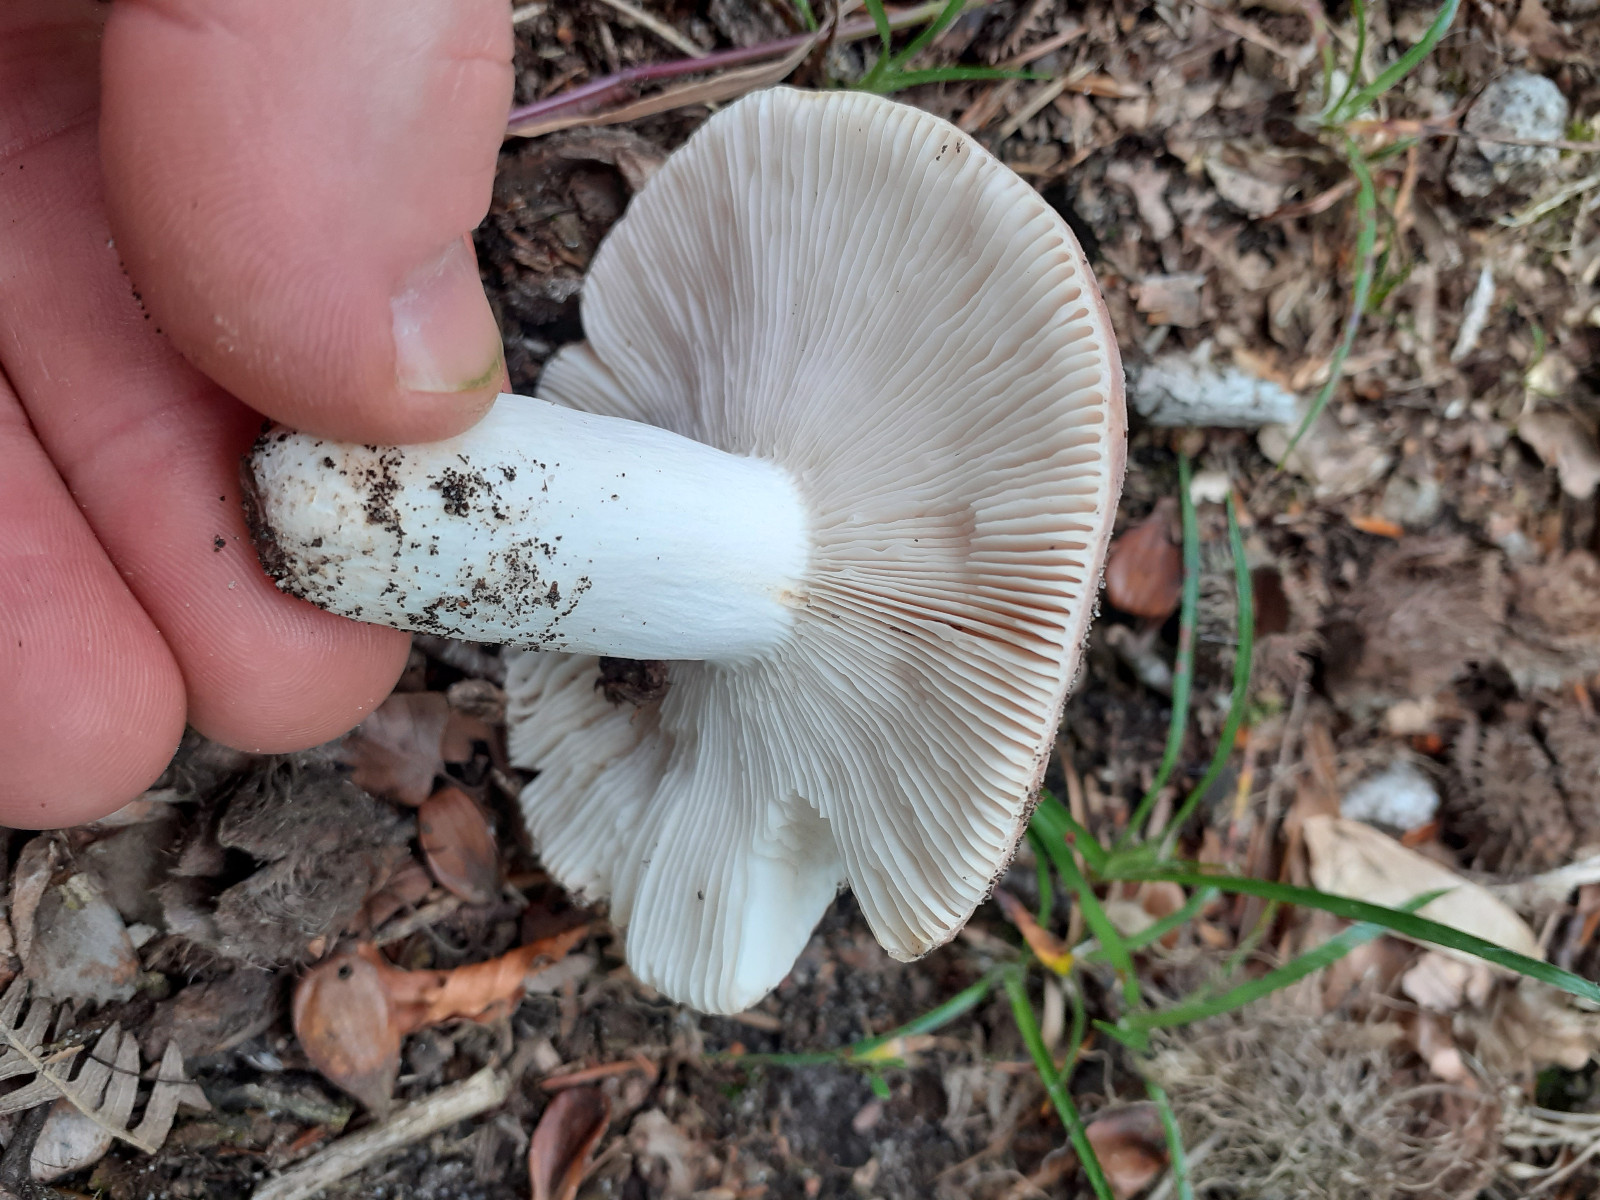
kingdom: Fungi
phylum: Basidiomycota
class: Agaricomycetes
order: Russulales
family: Russulaceae
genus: Russula
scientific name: Russula cyanoxantha
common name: broget skørhat
